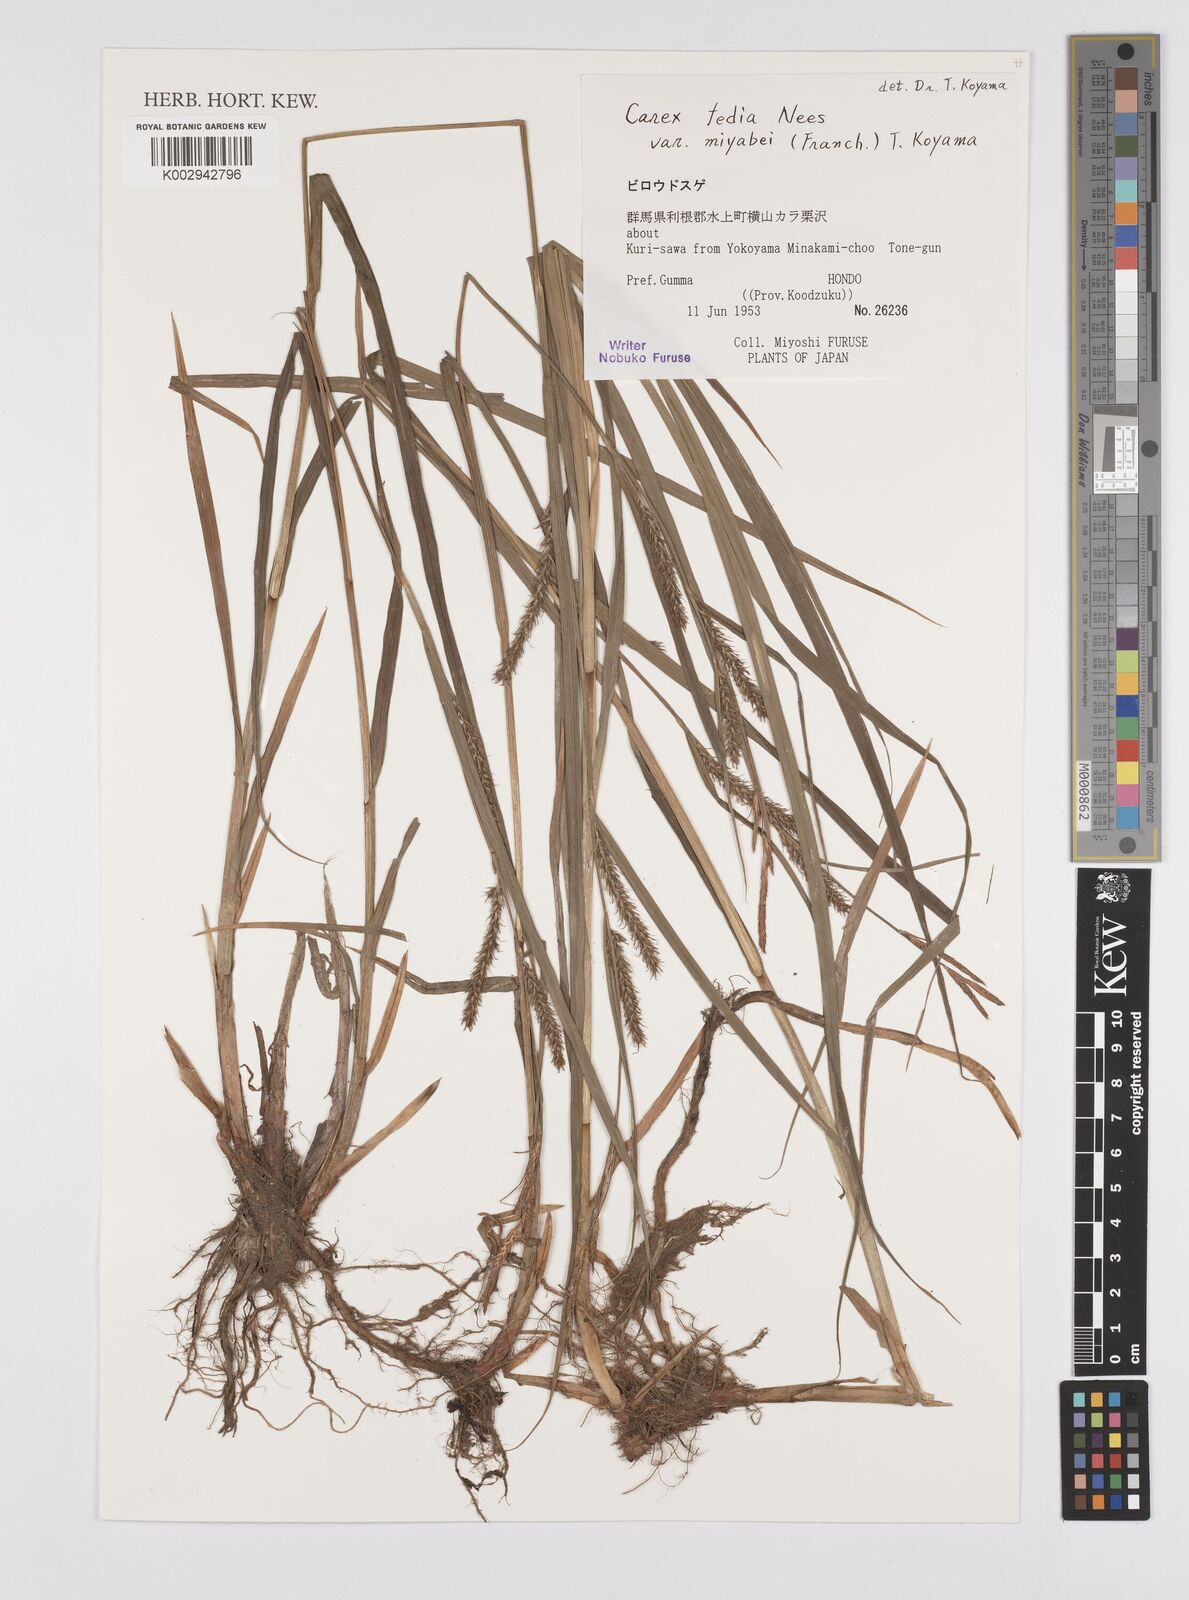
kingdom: Plantae
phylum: Tracheophyta
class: Liliopsida
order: Poales
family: Cyperaceae
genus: Carex
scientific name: Carex fedia
